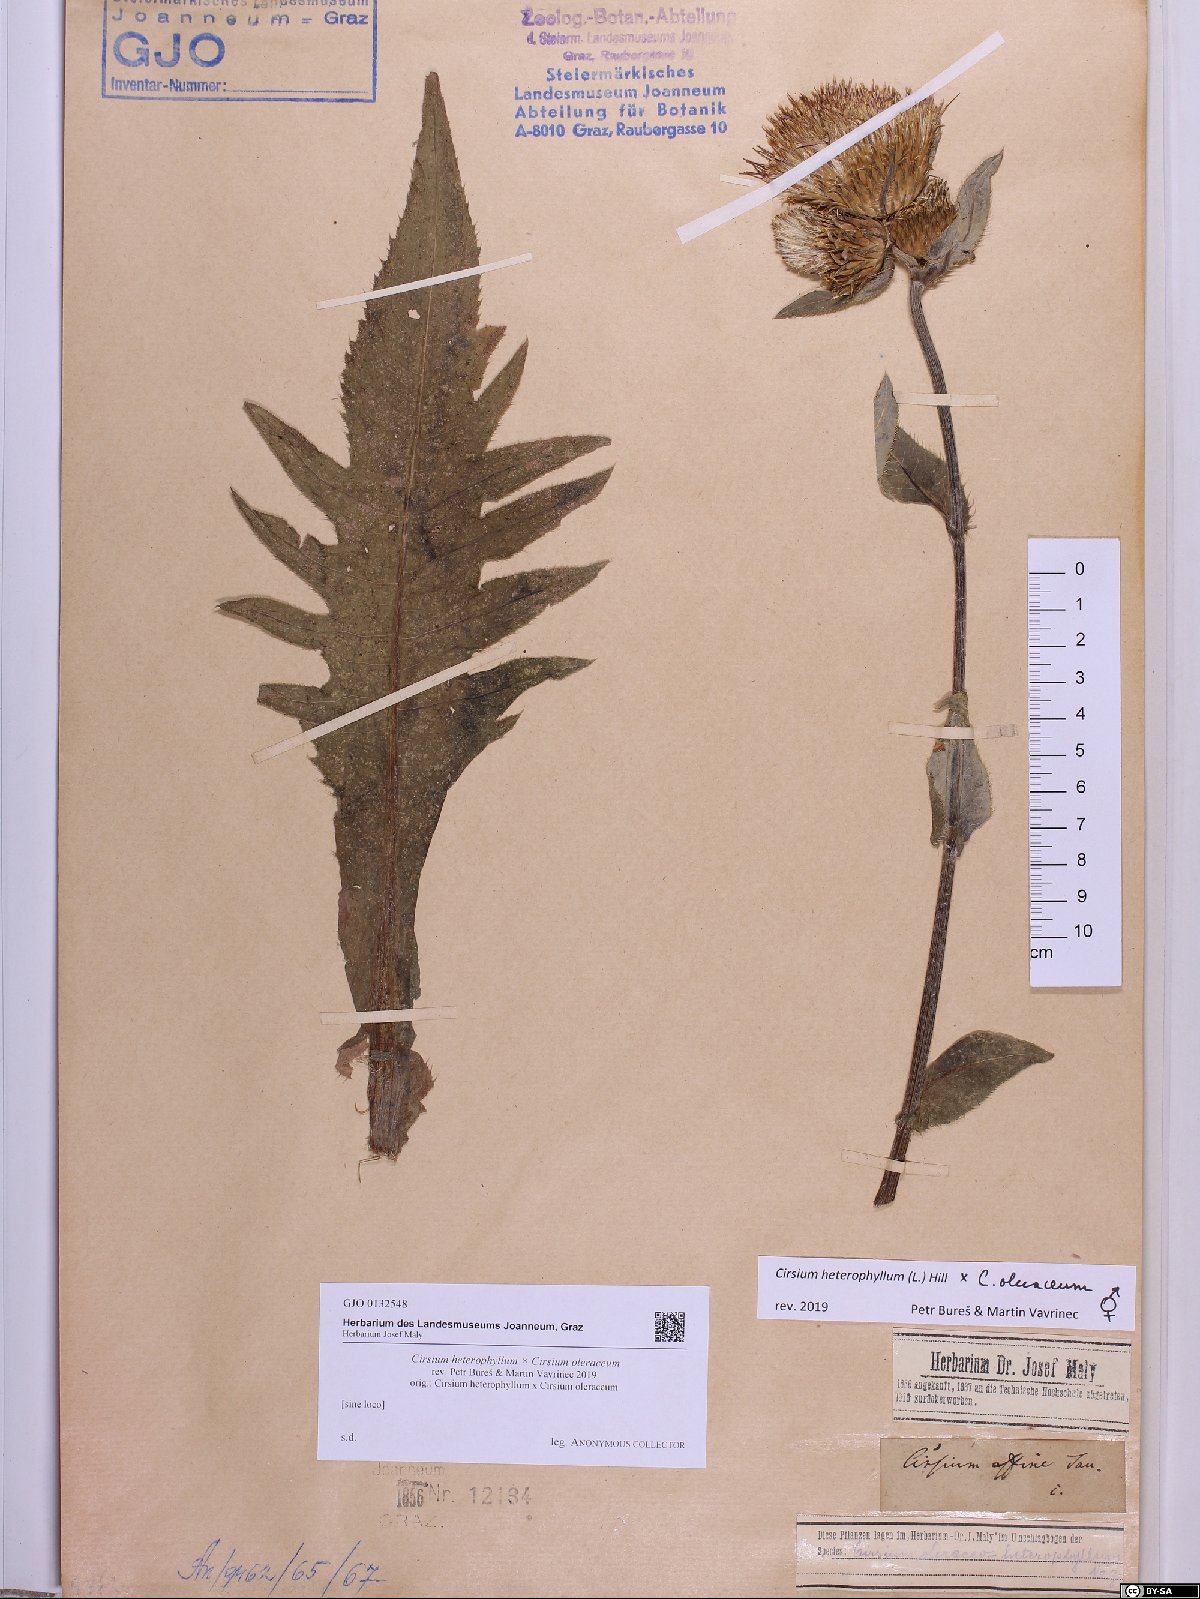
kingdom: Plantae
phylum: Tracheophyta
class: Magnoliopsida
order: Asterales
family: Asteraceae
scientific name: Asteraceae
